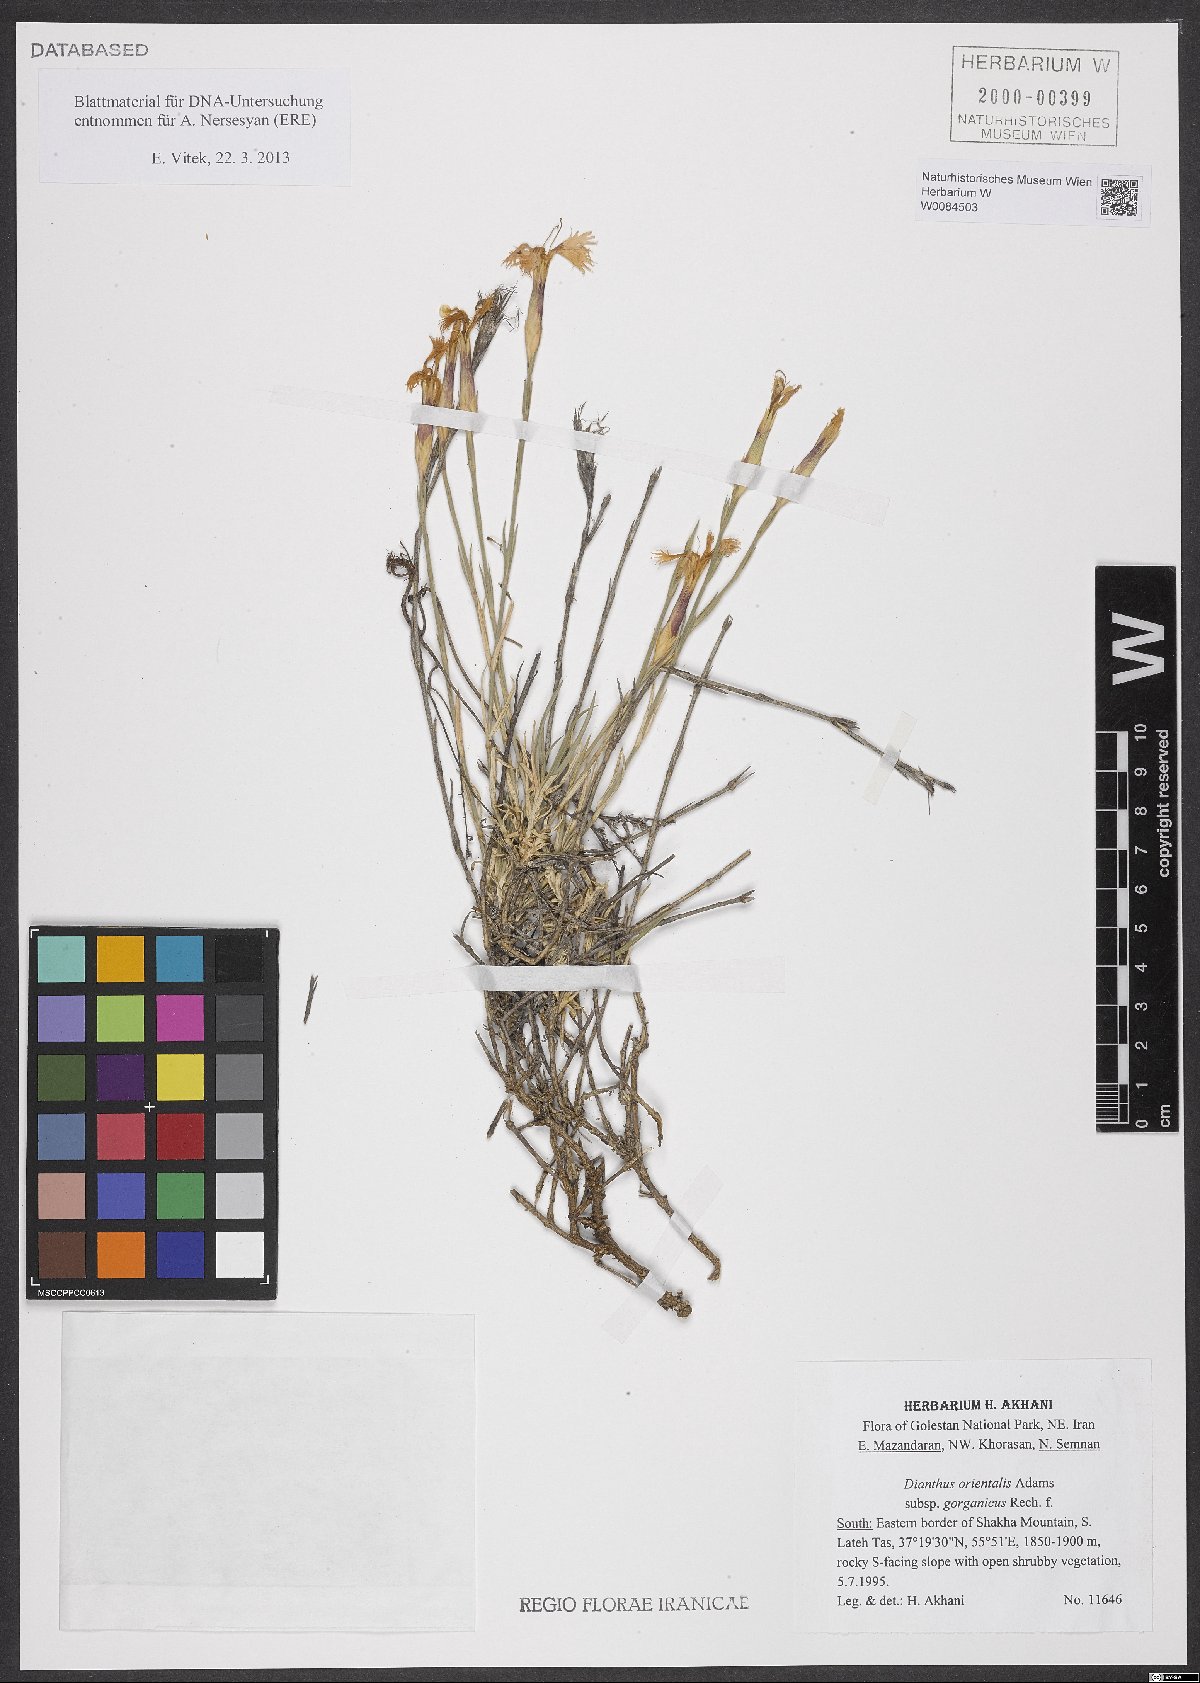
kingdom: Plantae
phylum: Tracheophyta
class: Magnoliopsida
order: Caryophyllales
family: Caryophyllaceae
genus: Dianthus
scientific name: Dianthus orientalis
